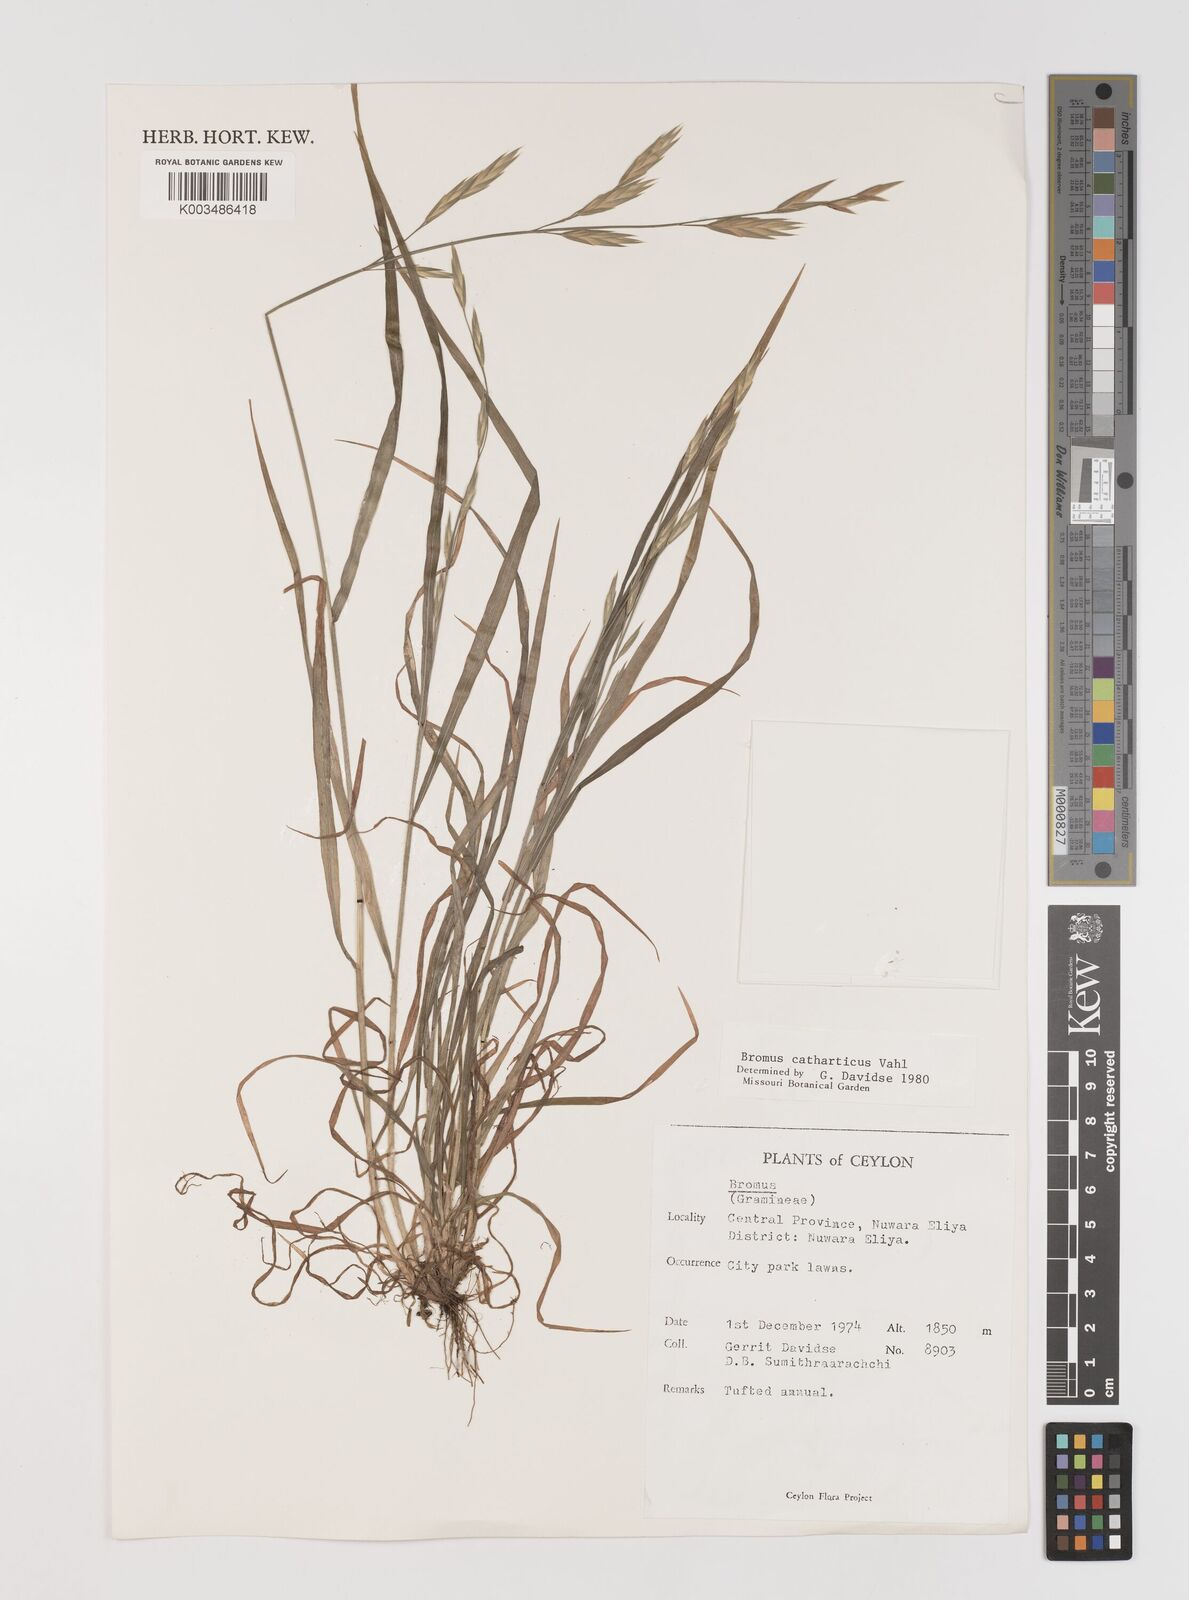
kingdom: Plantae
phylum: Tracheophyta
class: Liliopsida
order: Poales
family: Poaceae
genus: Bromus
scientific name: Bromus catharticus
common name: Rescuegrass
